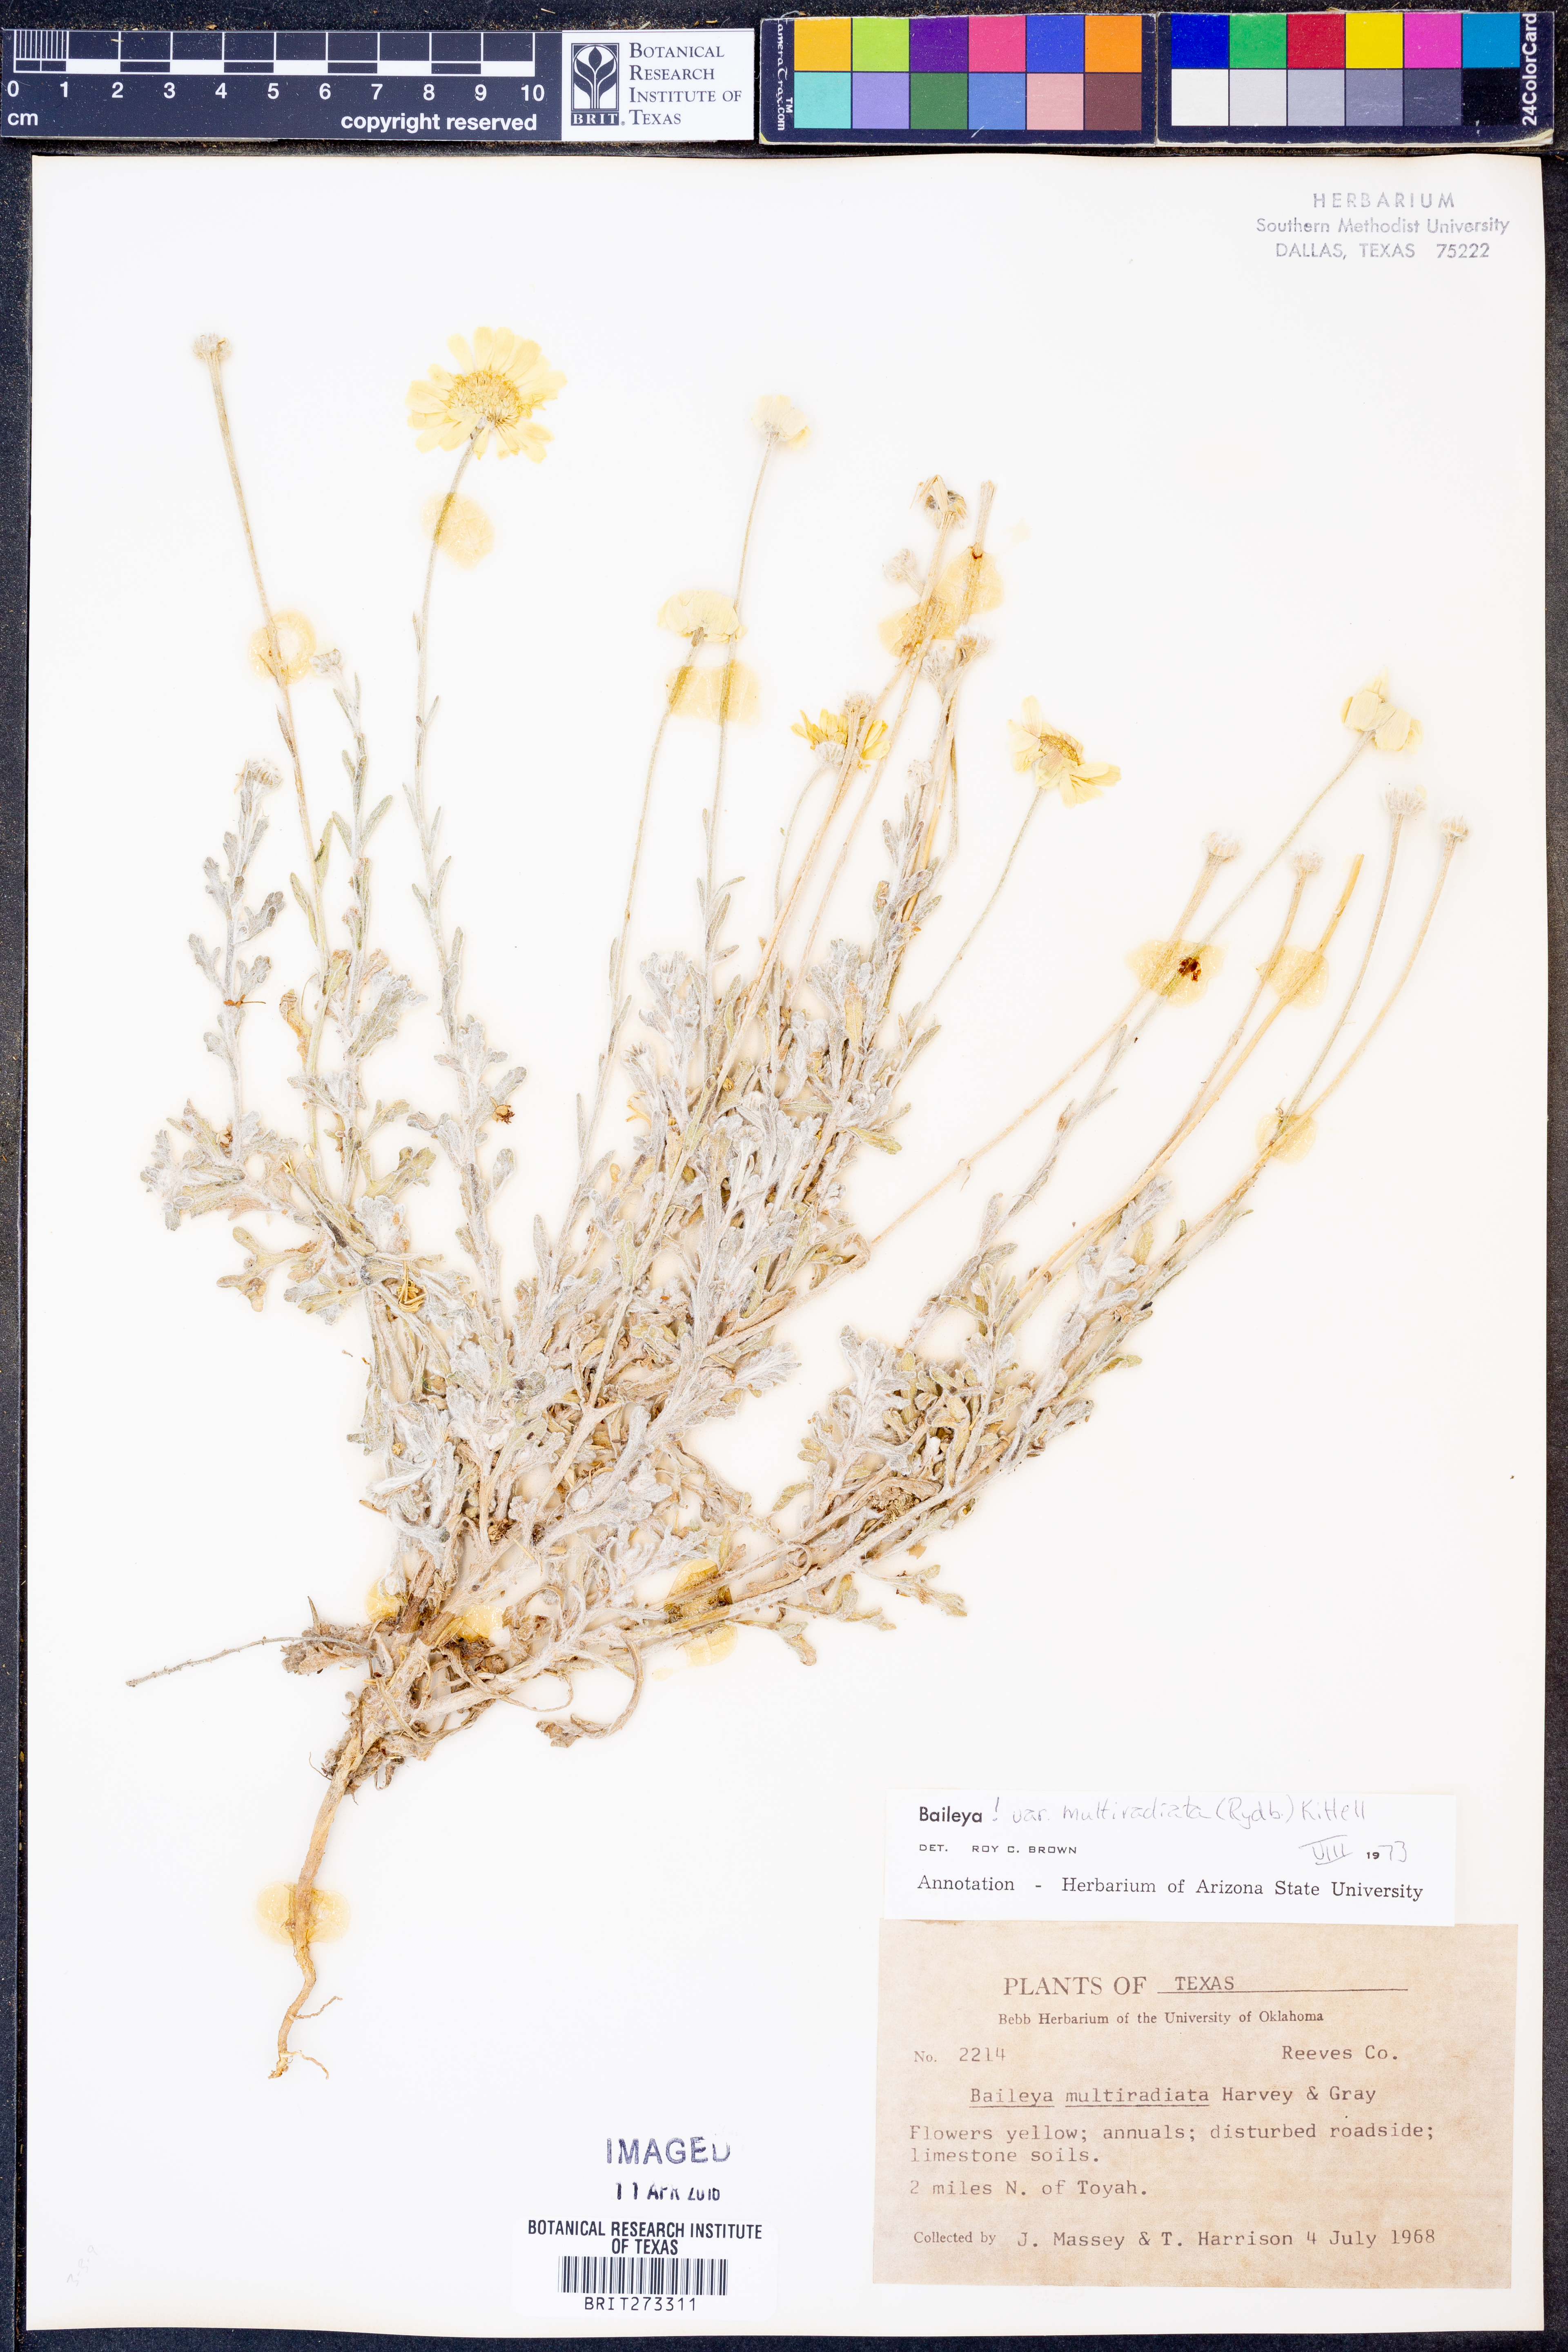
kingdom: Plantae
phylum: Tracheophyta
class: Magnoliopsida
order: Asterales
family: Asteraceae
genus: Baileya
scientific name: Baileya multiradiata
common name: Desert-marigold
